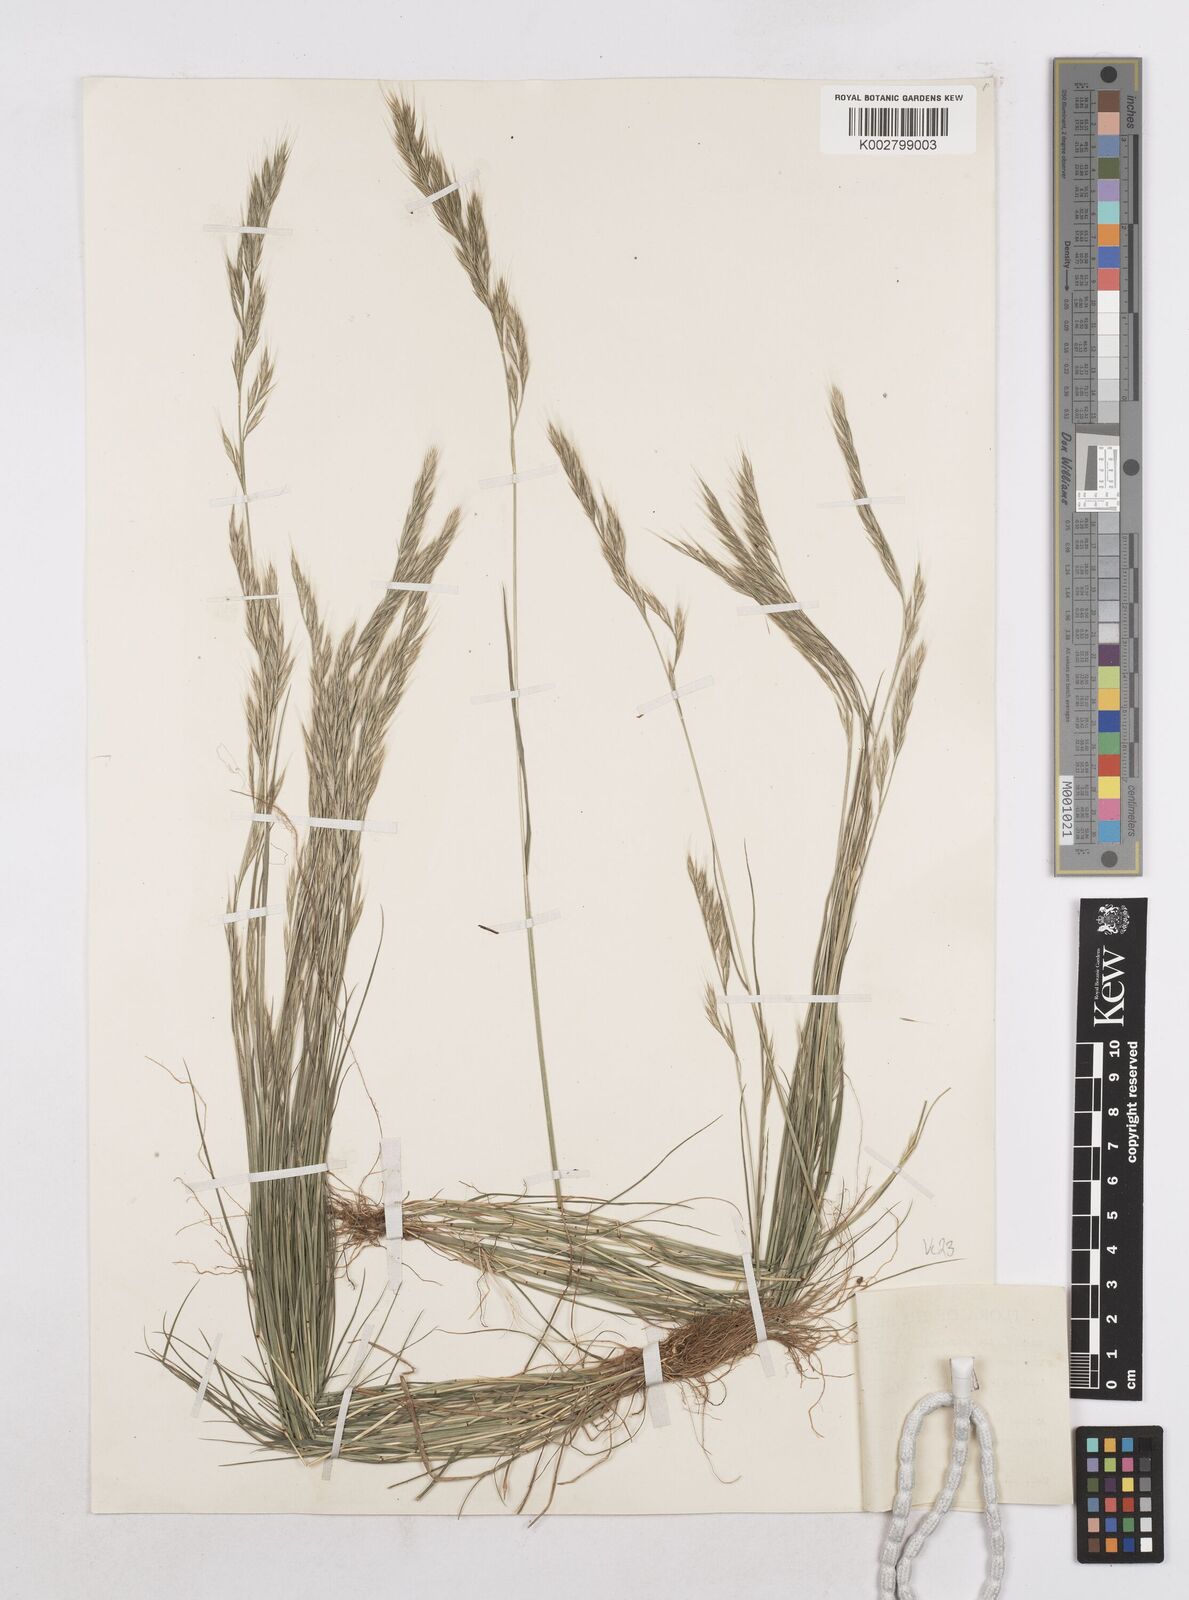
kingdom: Plantae
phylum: Tracheophyta
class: Liliopsida
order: Poales
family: Poaceae
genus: Festuca
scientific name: Festuca bromoides
